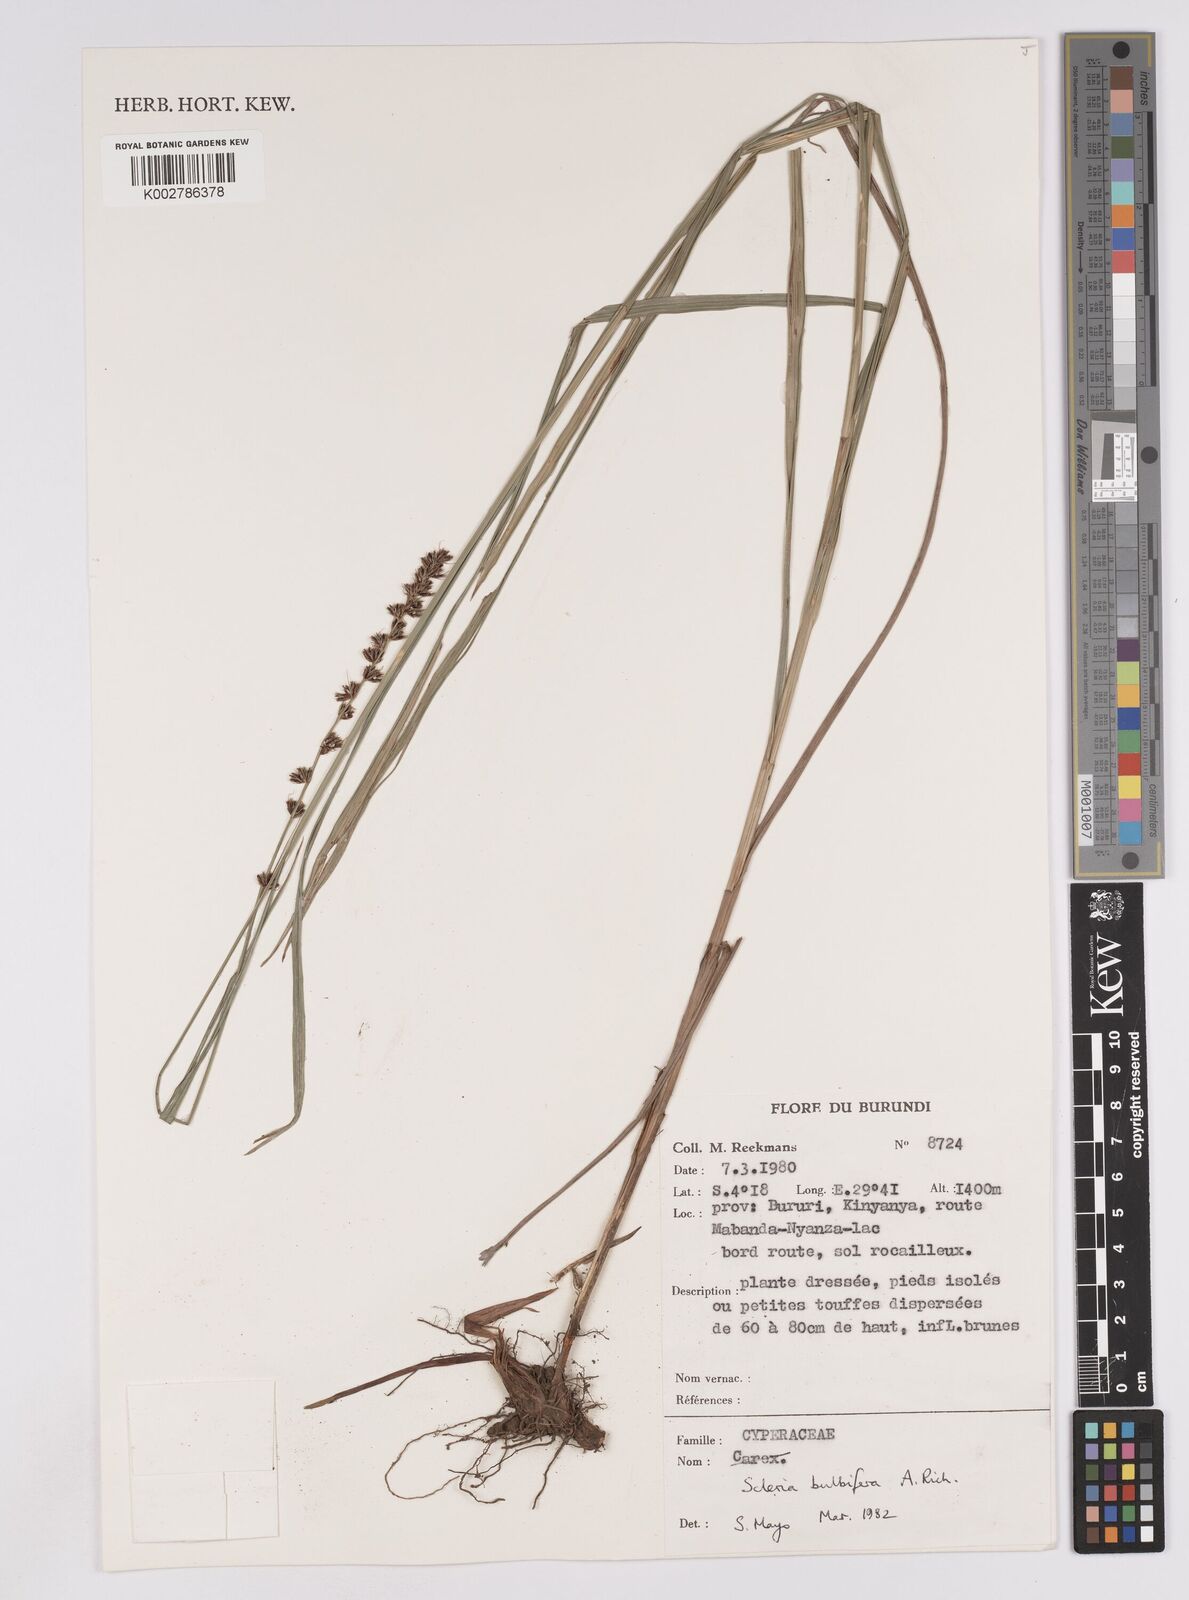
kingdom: Plantae
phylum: Tracheophyta
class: Liliopsida
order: Poales
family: Cyperaceae
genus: Scleria
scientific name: Scleria bulbifera
